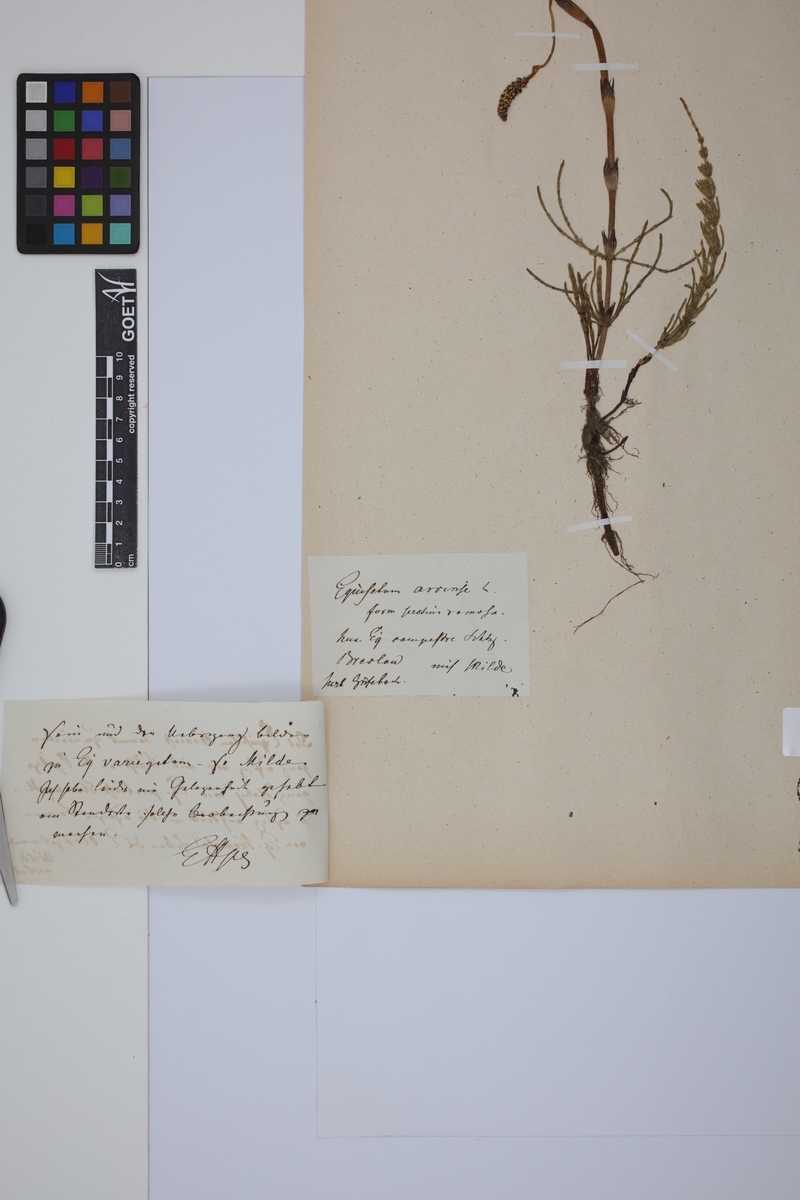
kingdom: Plantae
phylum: Tracheophyta
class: Polypodiopsida
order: Equisetales
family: Equisetaceae
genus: Equisetum
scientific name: Equisetum arvense
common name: Field horsetail
